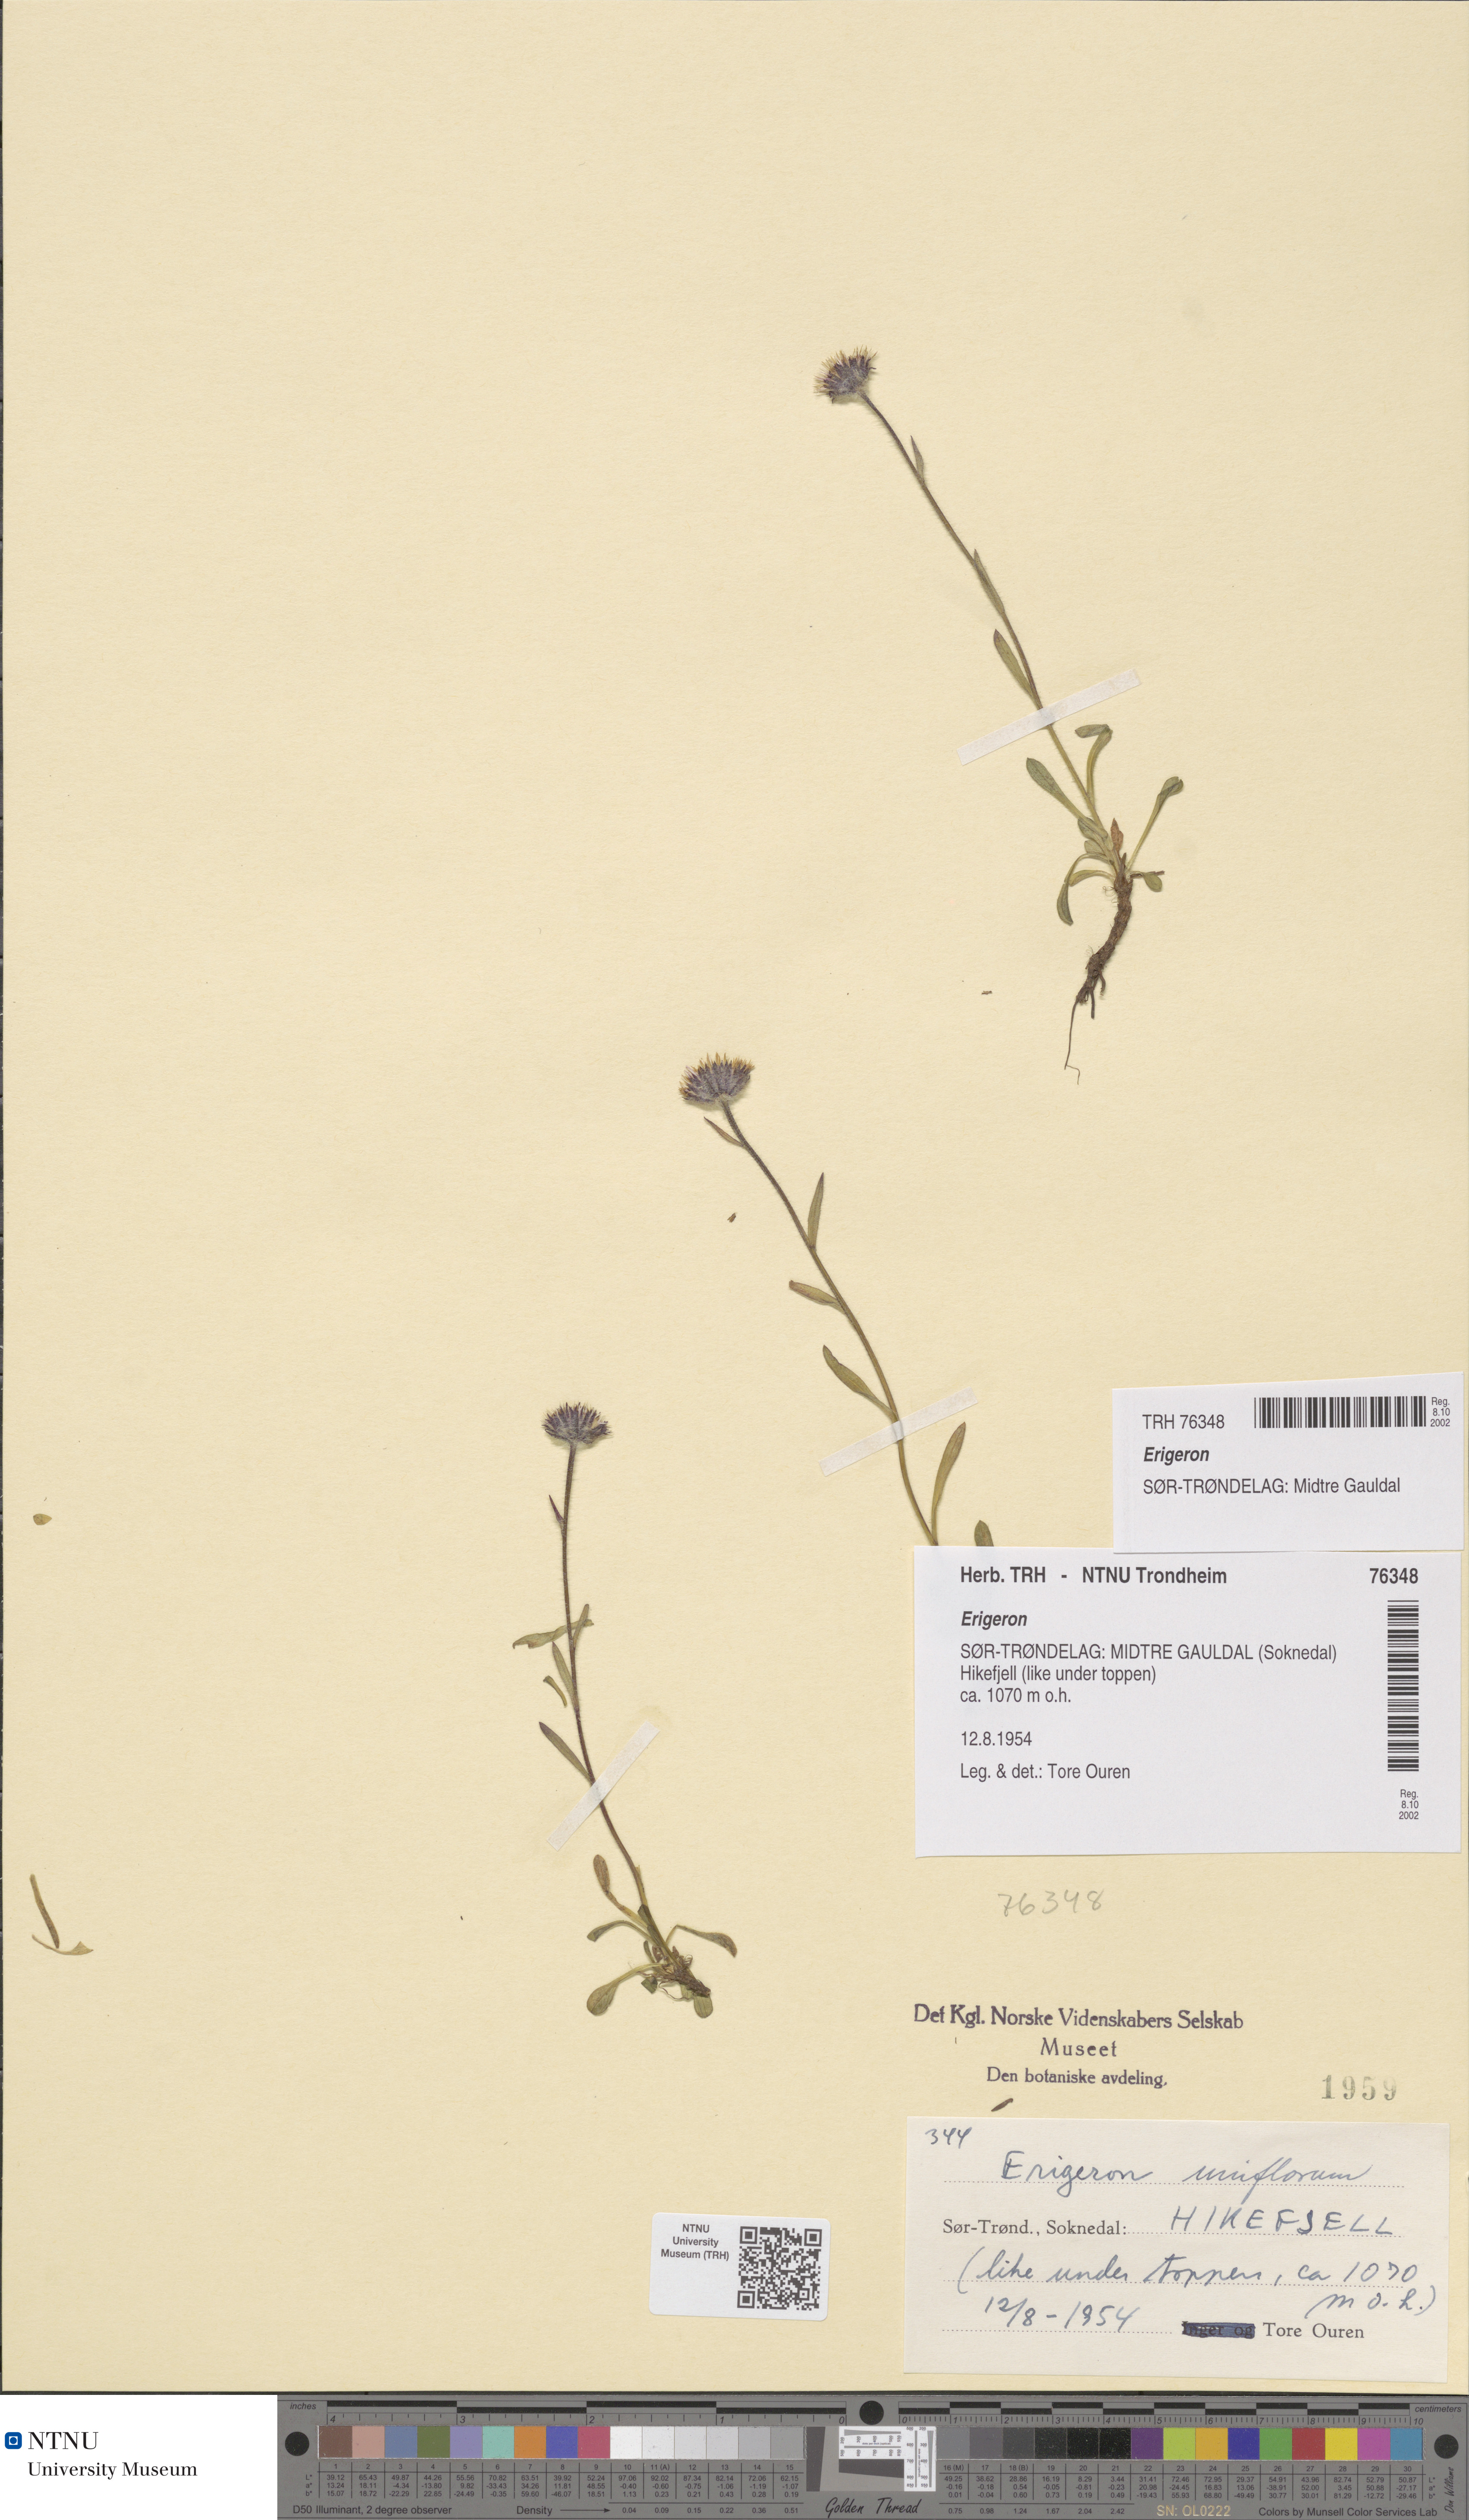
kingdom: Plantae
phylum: Tracheophyta
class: Magnoliopsida
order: Asterales
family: Asteraceae
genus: Erigeron
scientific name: Erigeron
